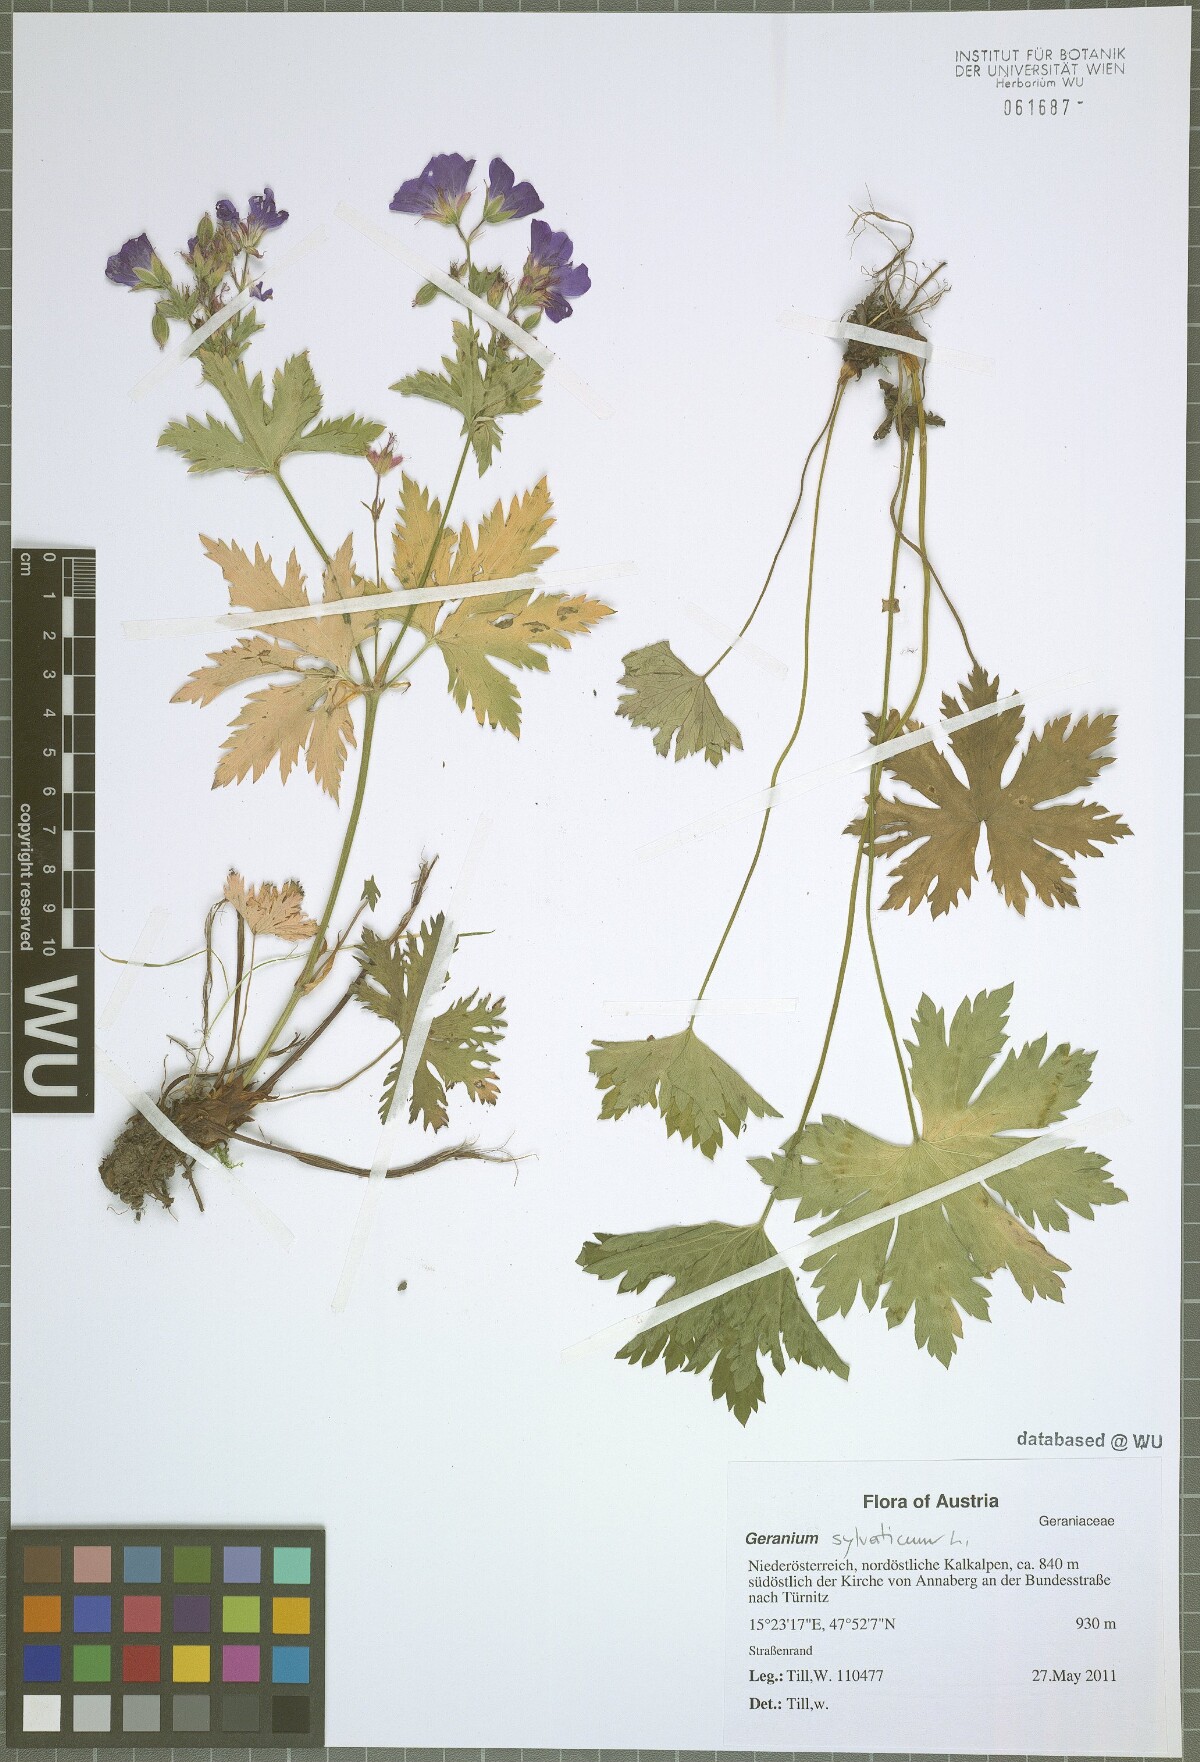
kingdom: Plantae
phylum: Tracheophyta
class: Magnoliopsida
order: Geraniales
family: Geraniaceae
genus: Geranium
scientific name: Geranium sylvaticum
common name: Wood crane's-bill
